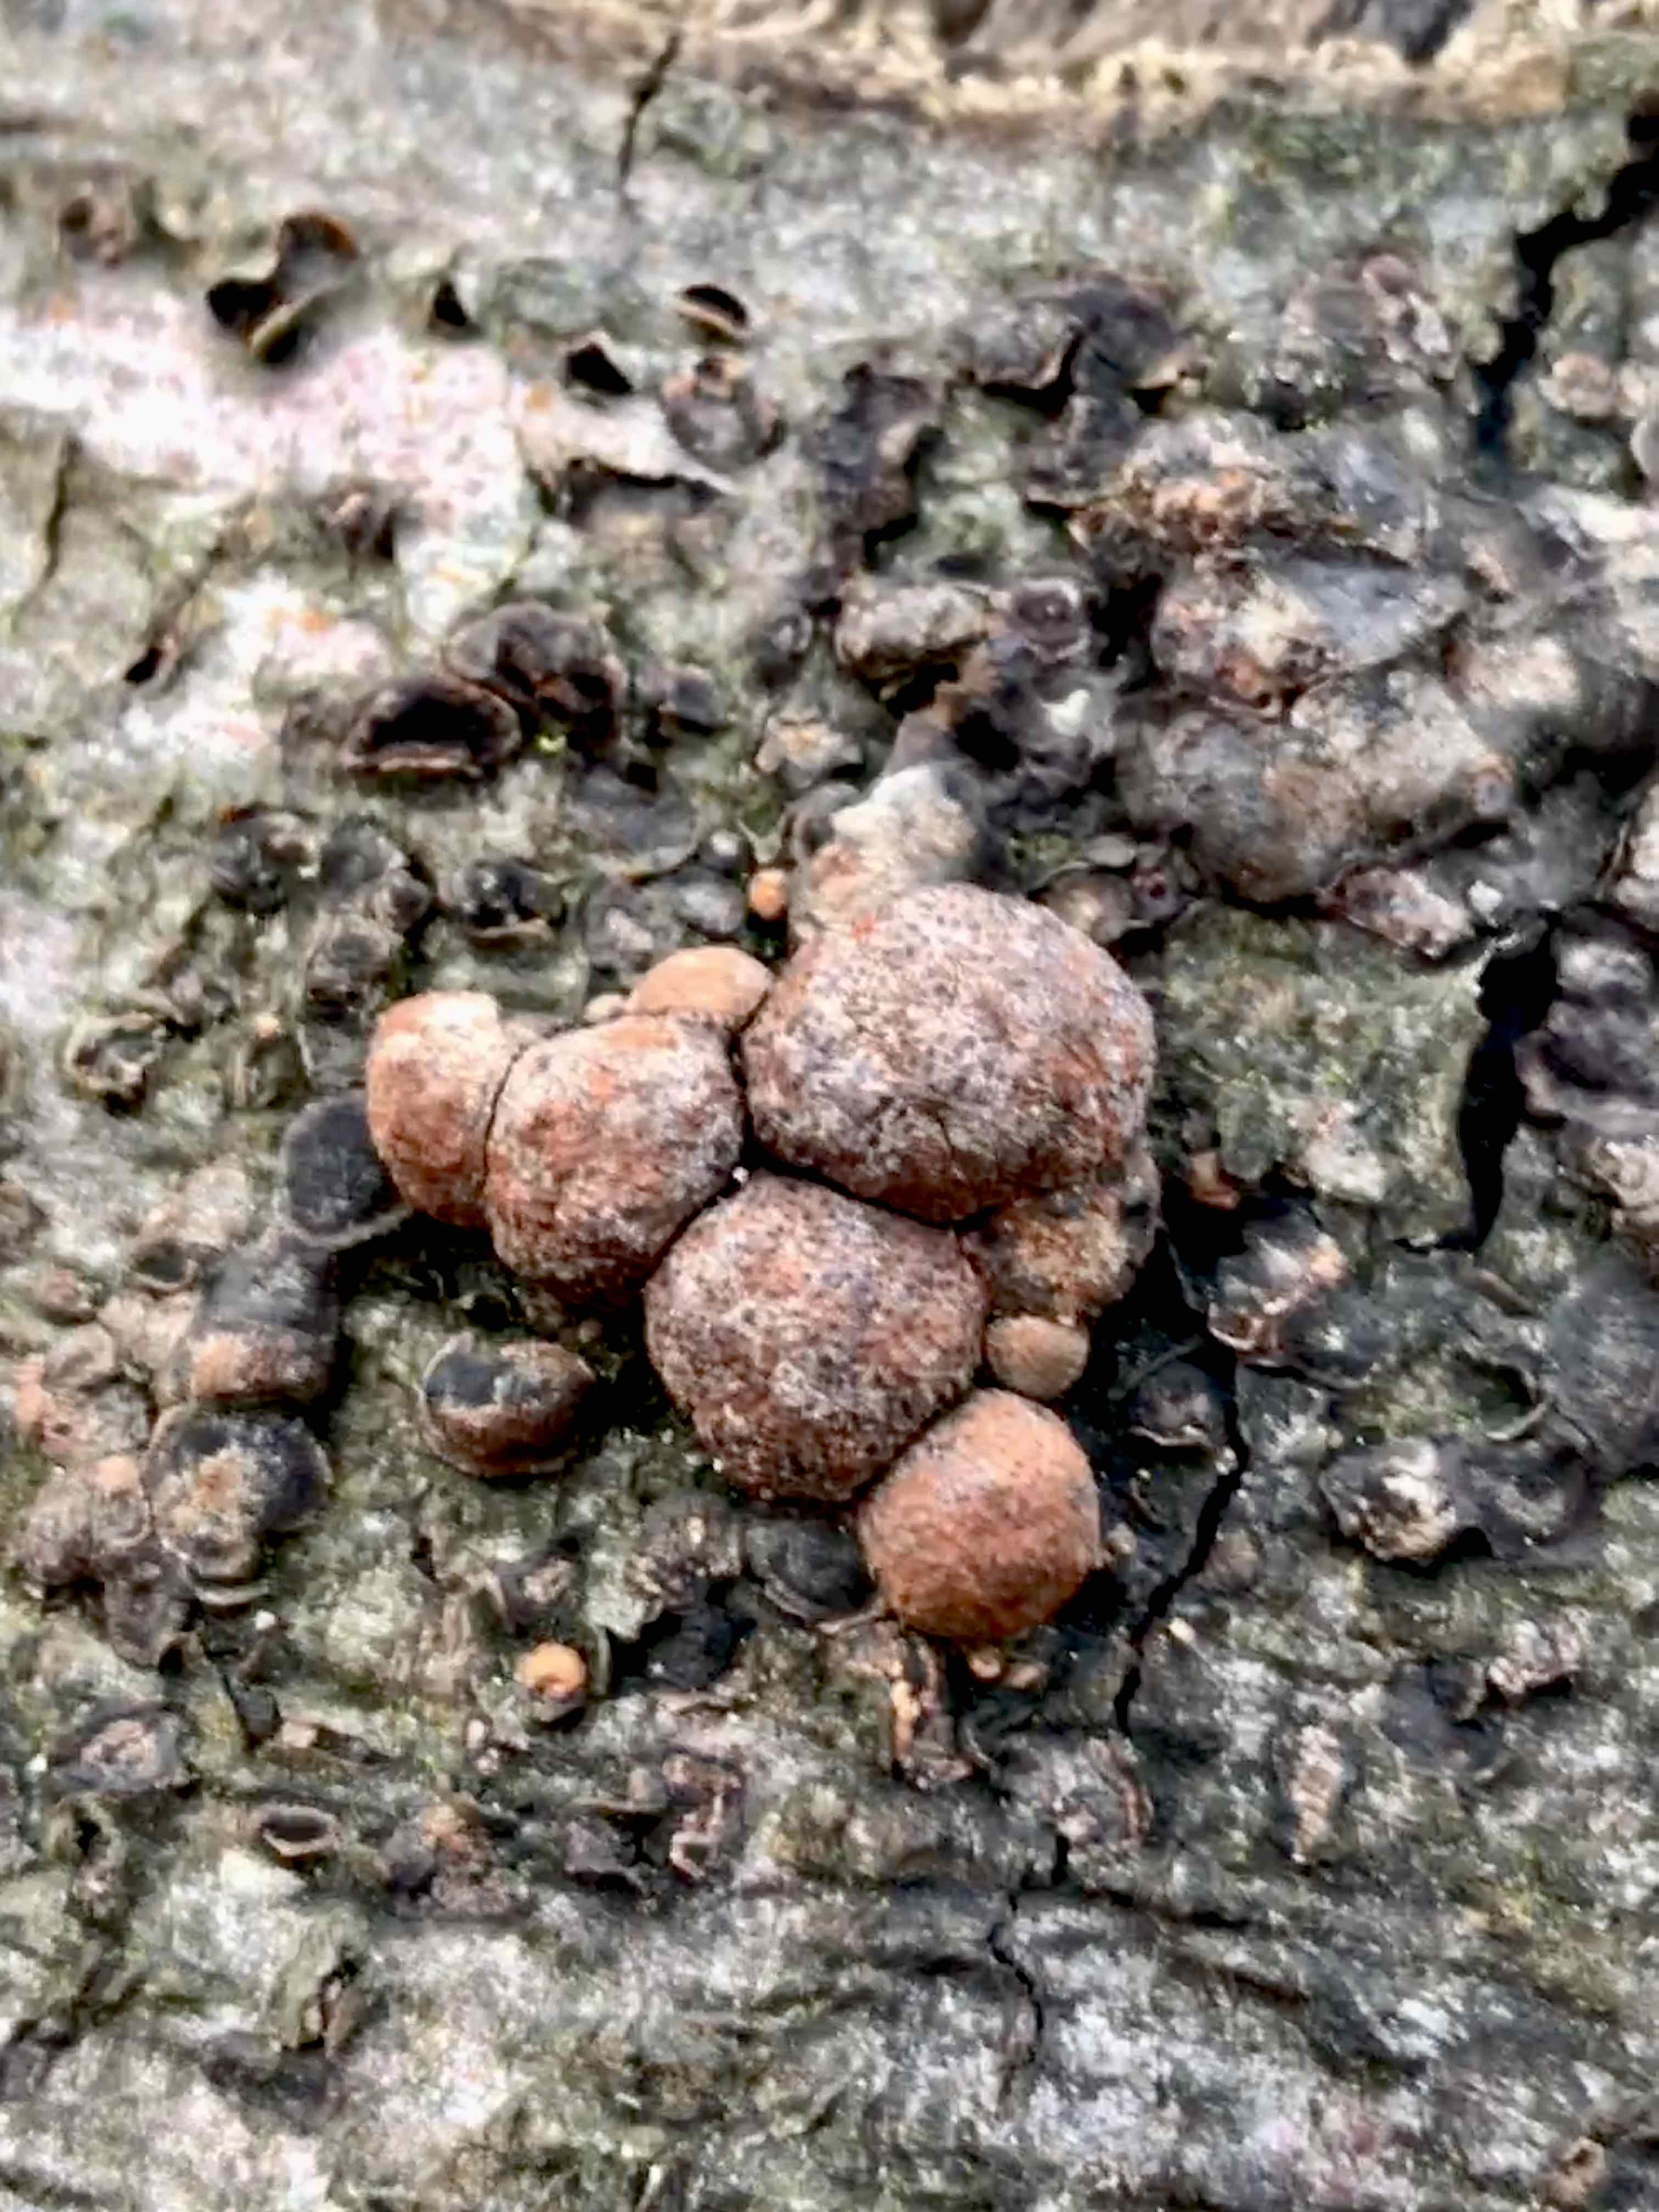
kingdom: Fungi
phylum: Ascomycota
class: Sordariomycetes
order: Xylariales
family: Hypoxylaceae
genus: Hypoxylon
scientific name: Hypoxylon fragiforme
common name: kuljordbær
